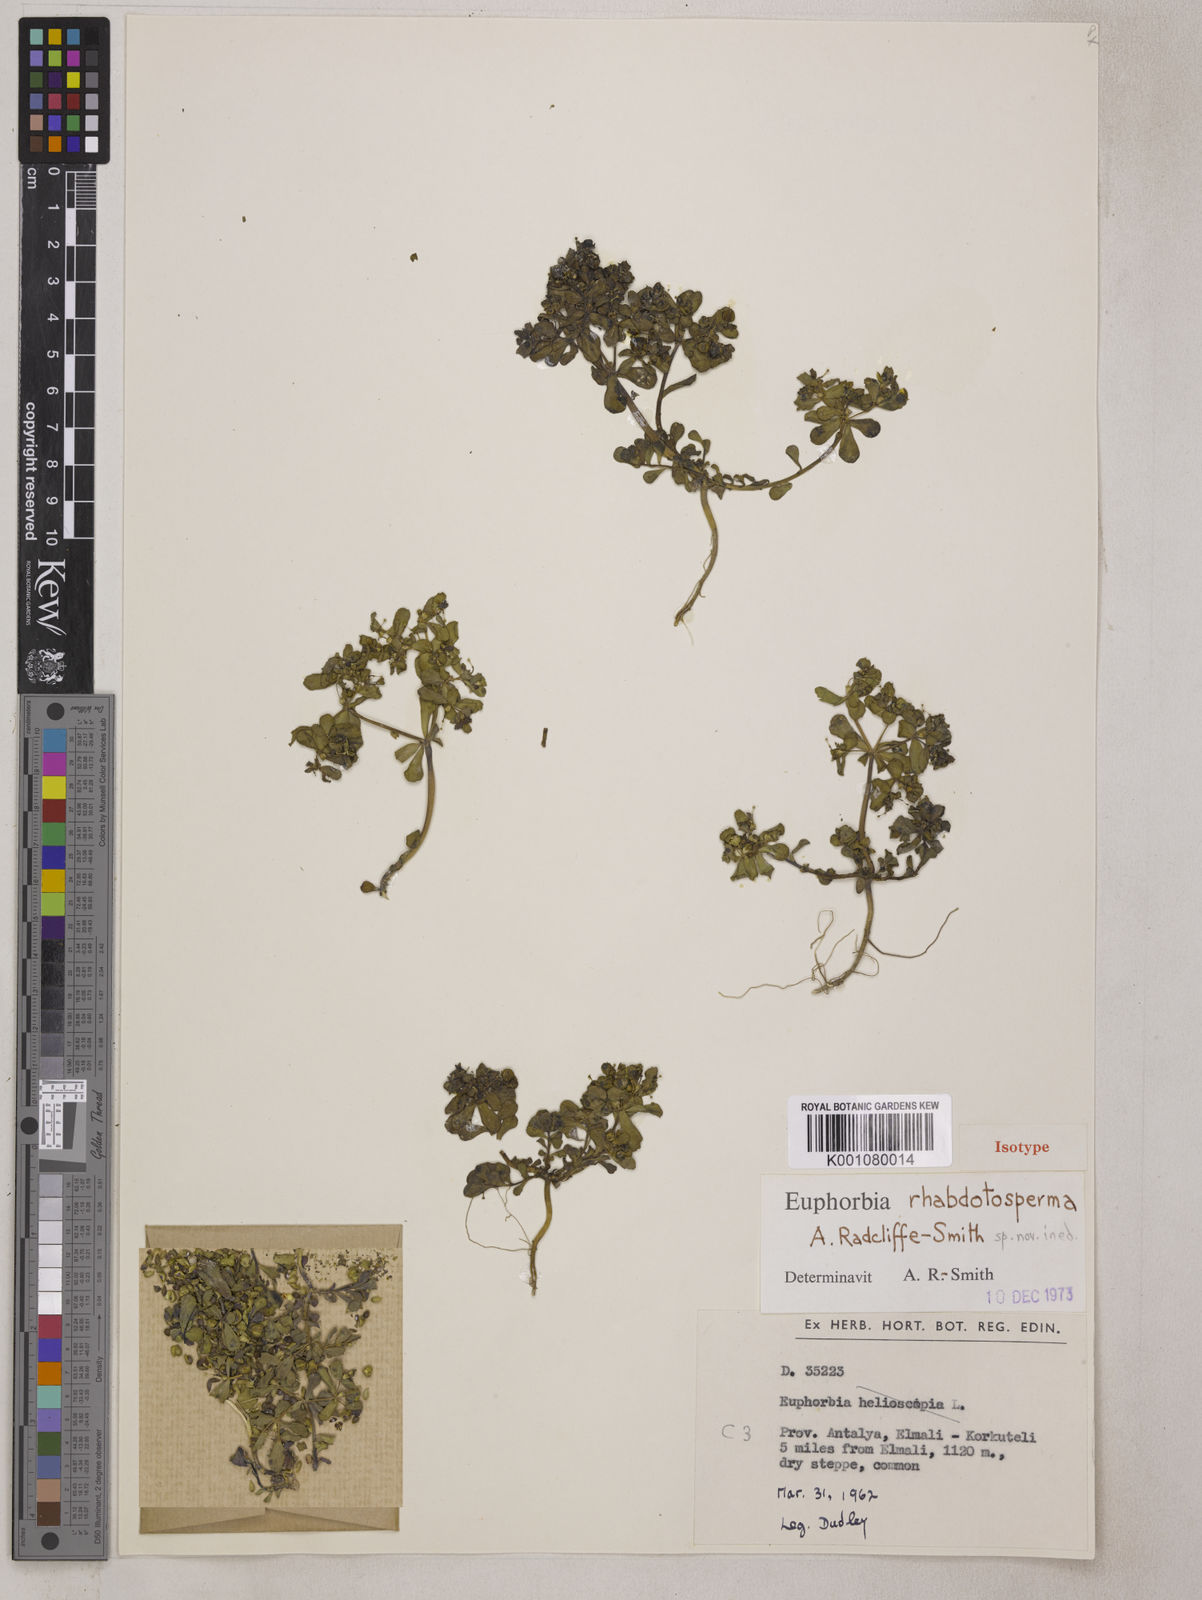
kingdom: Plantae
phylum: Tracheophyta
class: Magnoliopsida
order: Malpighiales
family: Euphorbiaceae
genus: Euphorbia
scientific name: Euphorbia rhabdotosperma
